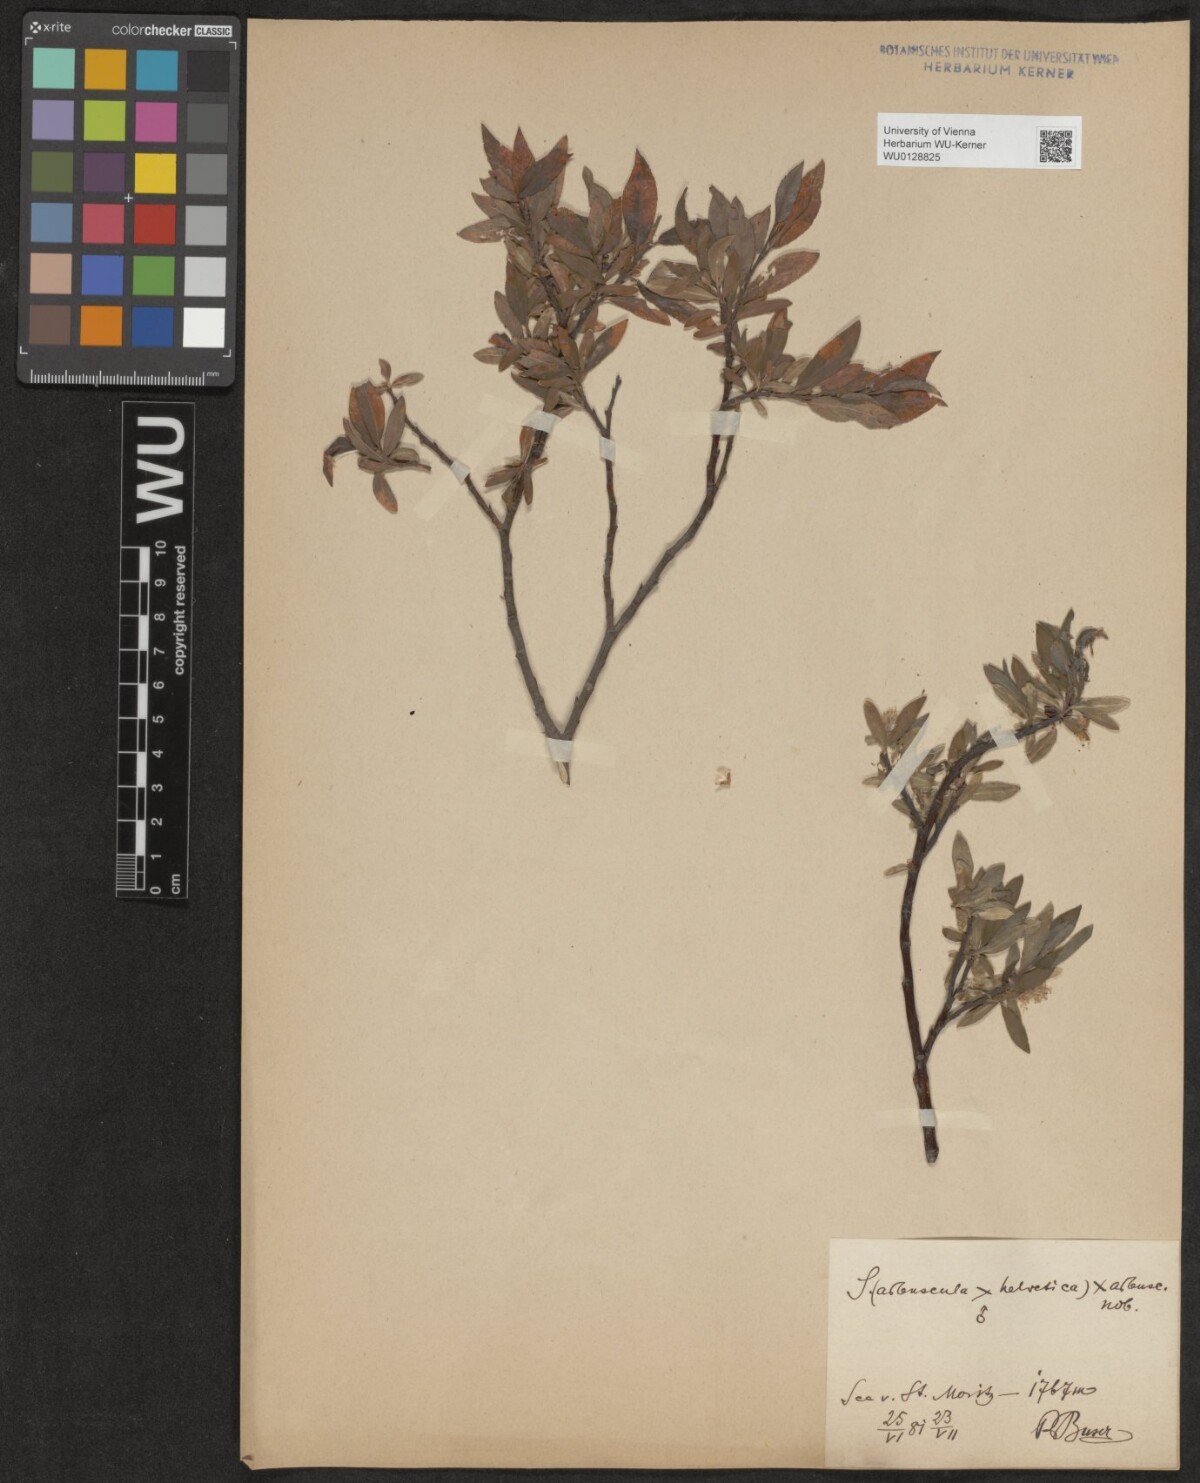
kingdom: Plantae
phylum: Tracheophyta
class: Magnoliopsida
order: Malpighiales
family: Salicaceae
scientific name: Salicaceae
